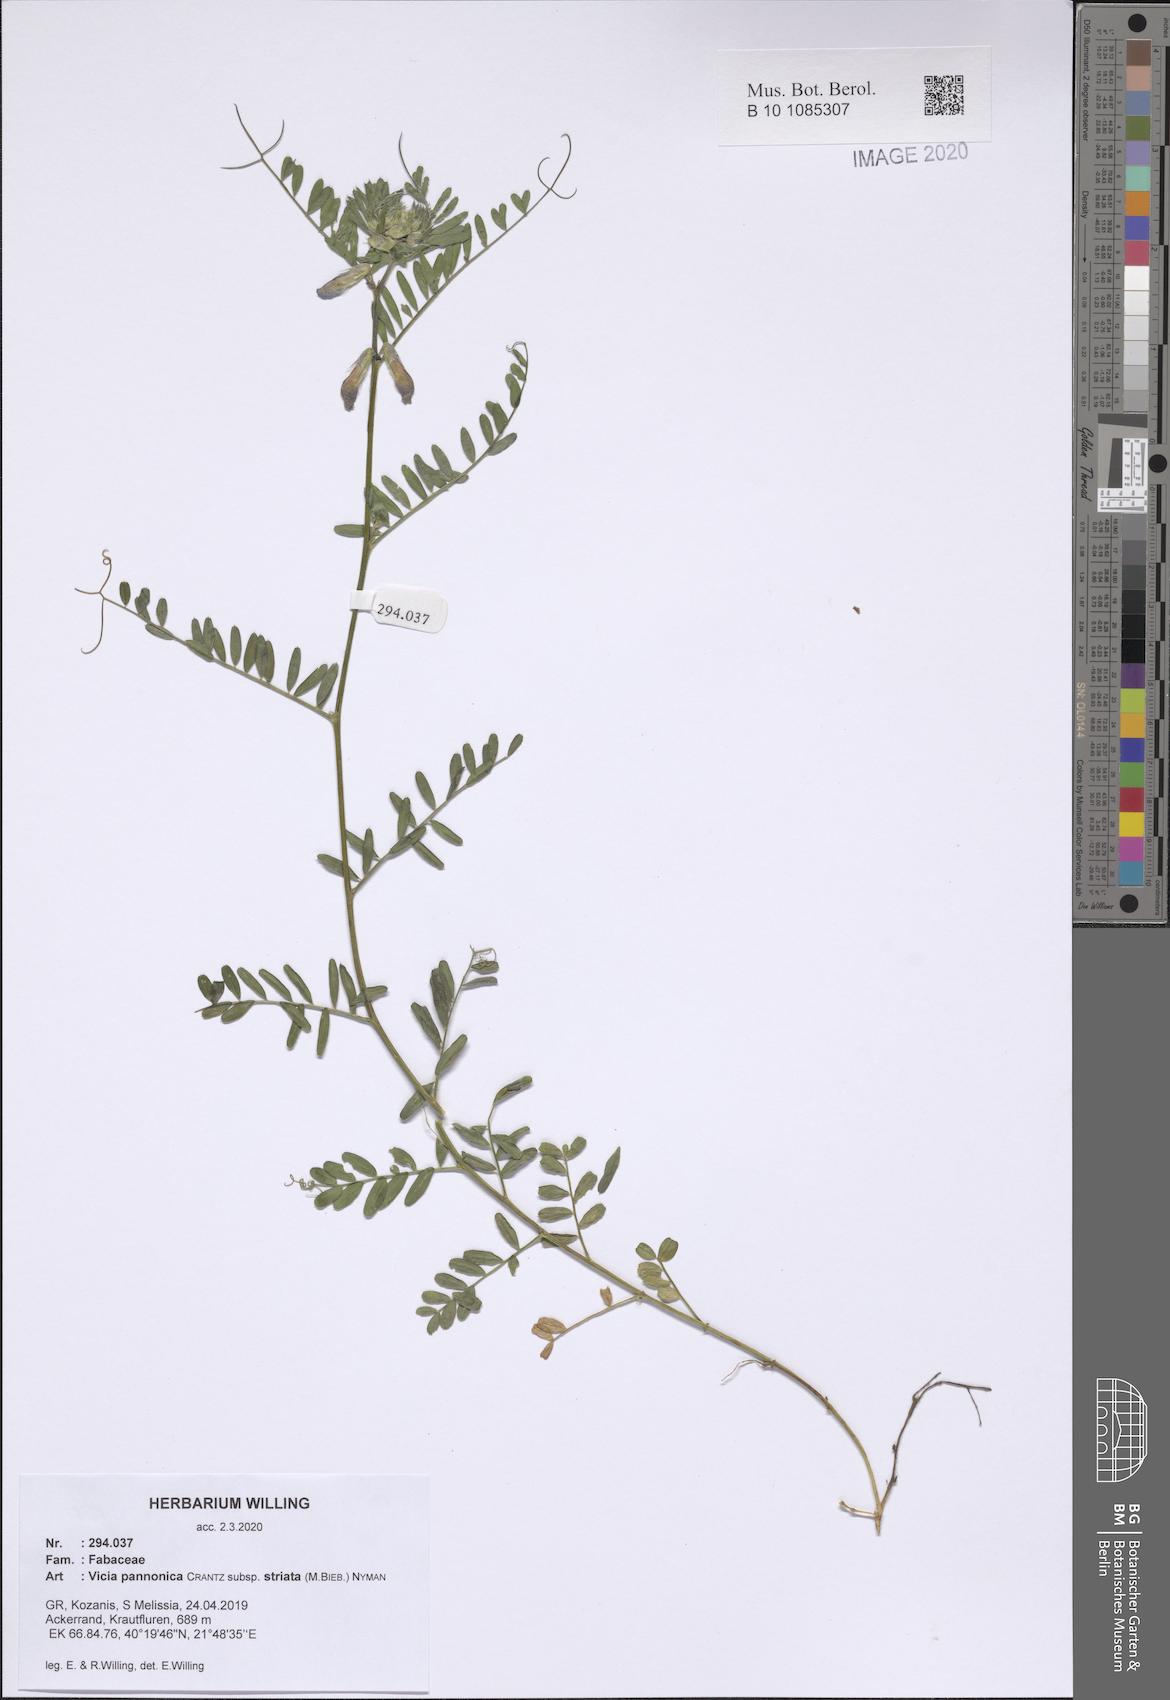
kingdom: Plantae
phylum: Tracheophyta
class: Magnoliopsida
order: Fabales
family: Fabaceae
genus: Vicia
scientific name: Vicia pannonica
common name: Hungarian vetch
